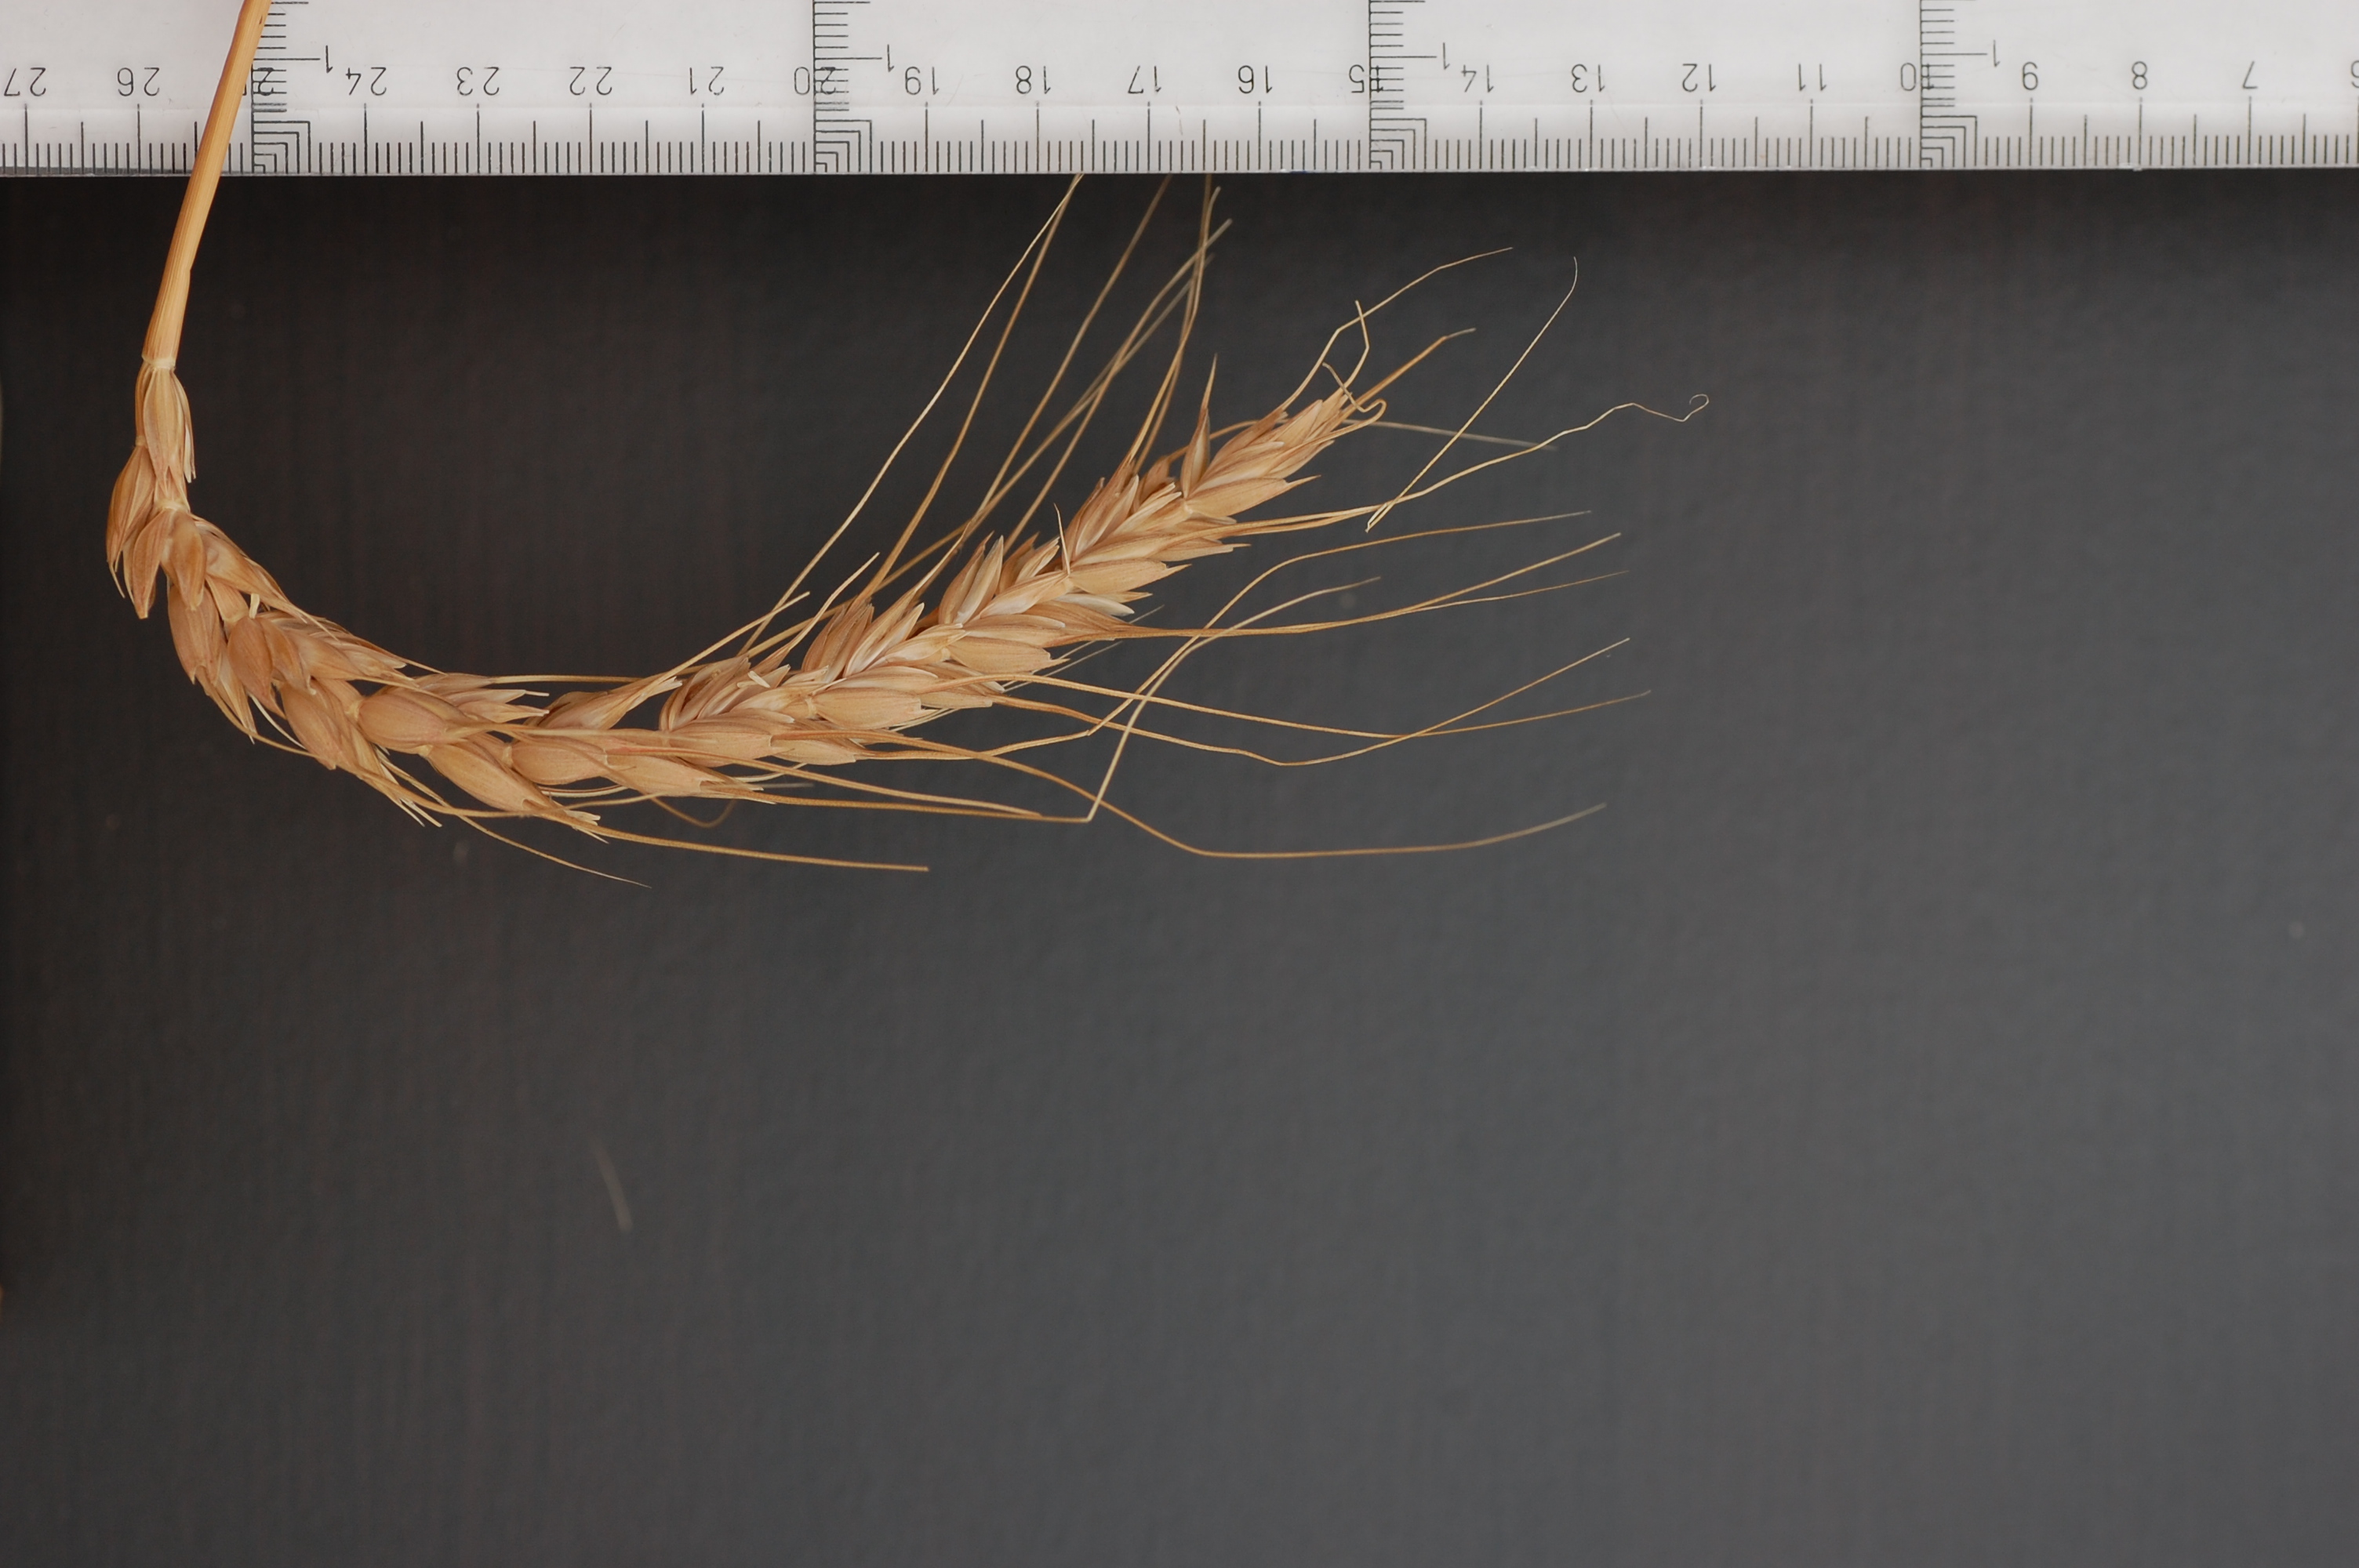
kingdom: Plantae
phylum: Tracheophyta
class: Liliopsida
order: Poales
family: Poaceae
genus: Triticum
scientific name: Triticum aestivum
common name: Common wheat
